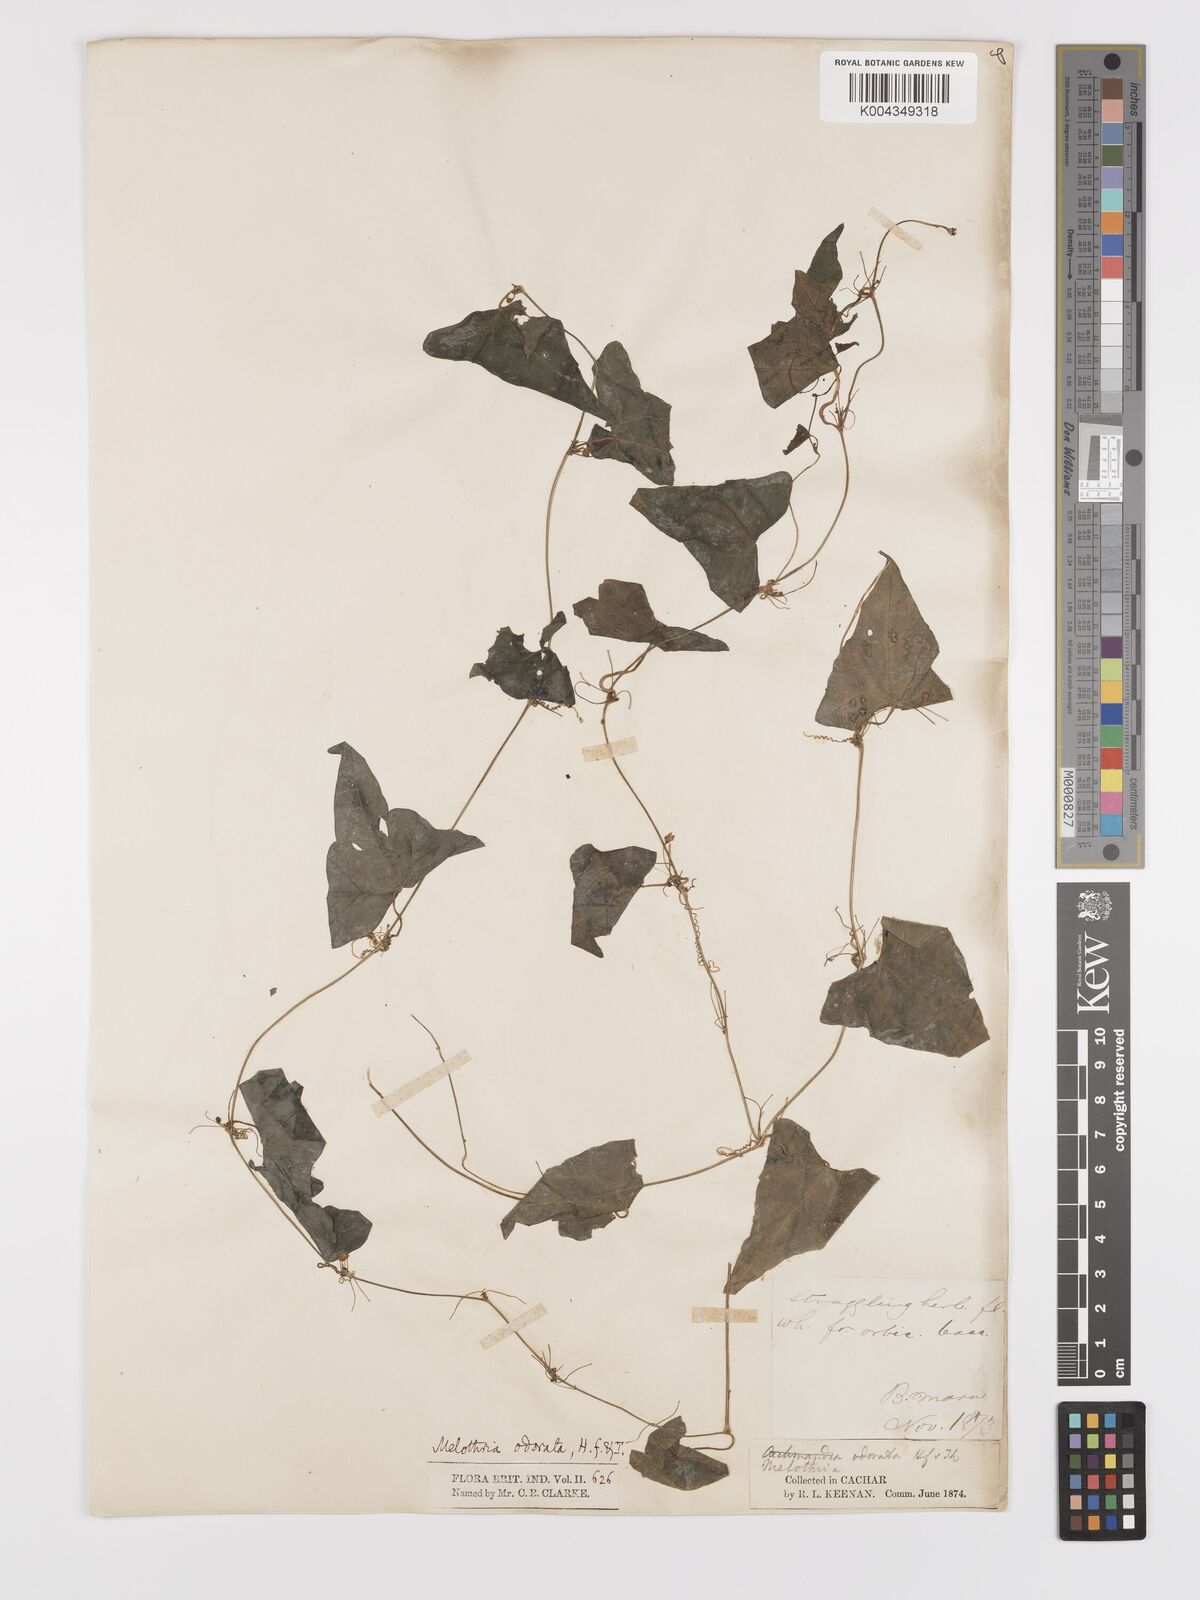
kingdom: Plantae
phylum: Tracheophyta
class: Magnoliopsida
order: Cucurbitales
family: Cucurbitaceae
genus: Zehneria
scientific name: Zehneria odorata
